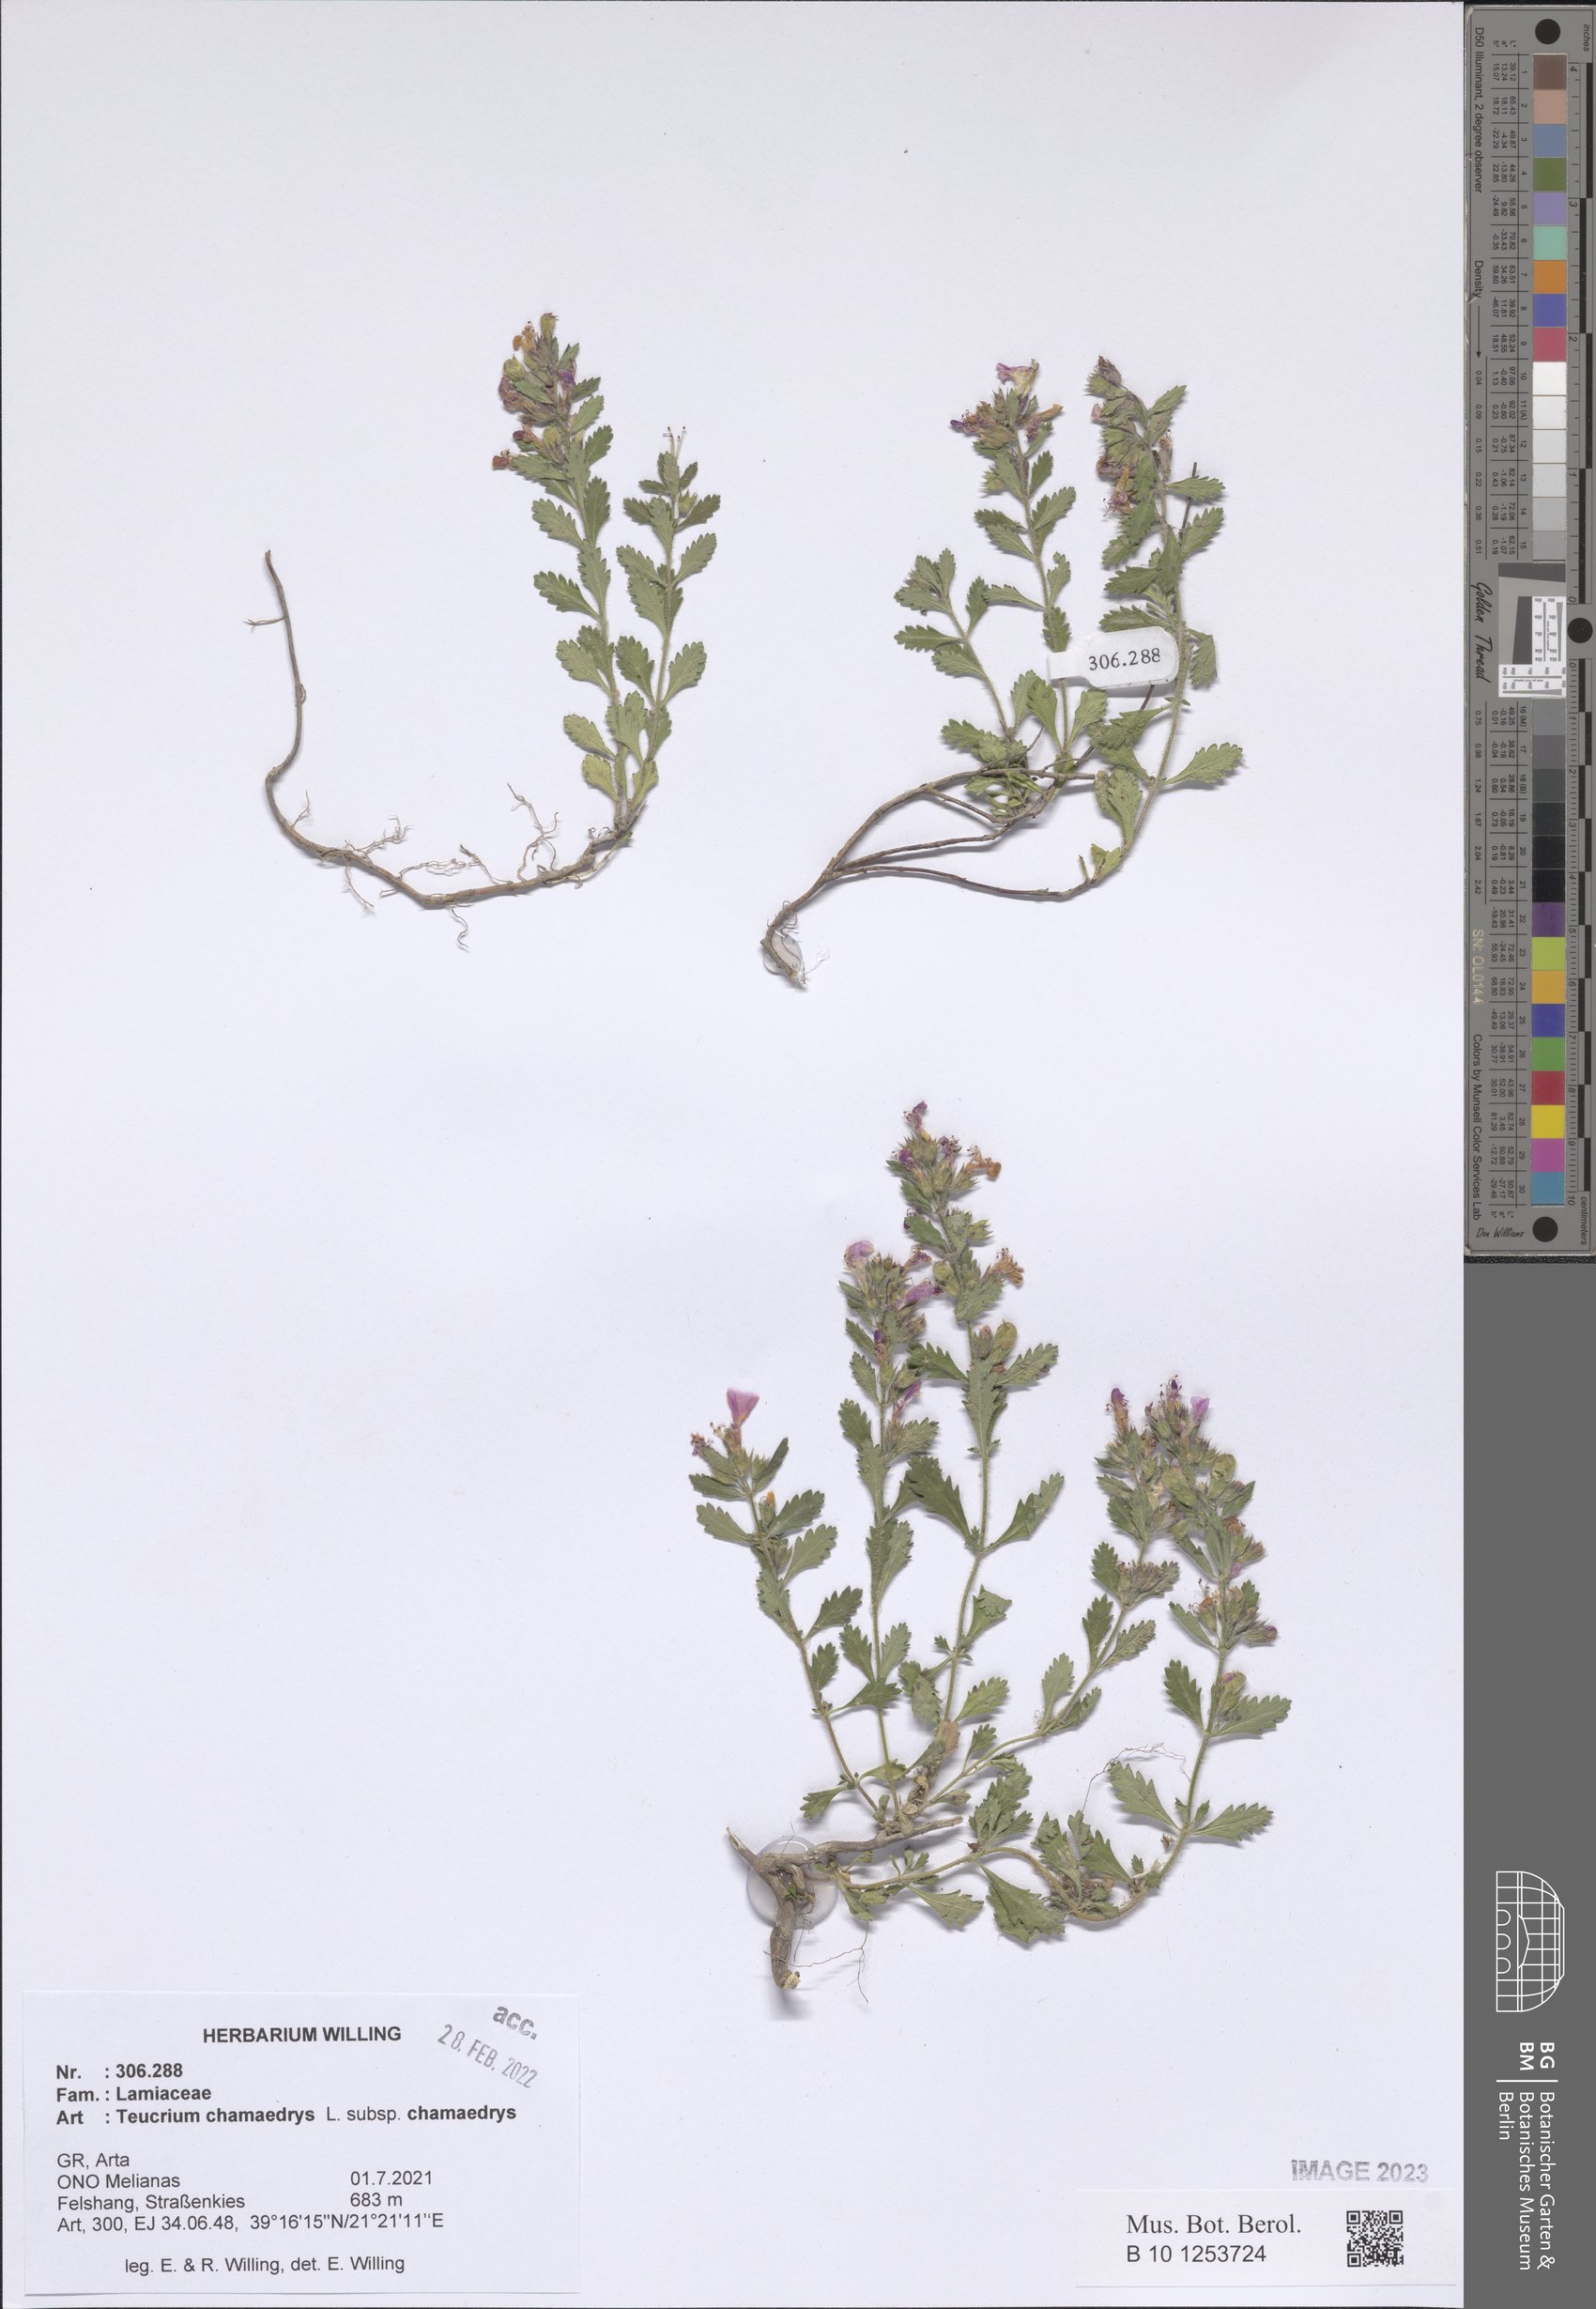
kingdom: Plantae
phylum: Tracheophyta
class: Magnoliopsida
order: Lamiales
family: Lamiaceae
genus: Teucrium
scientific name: Teucrium chamaedrys
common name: Wall germander
